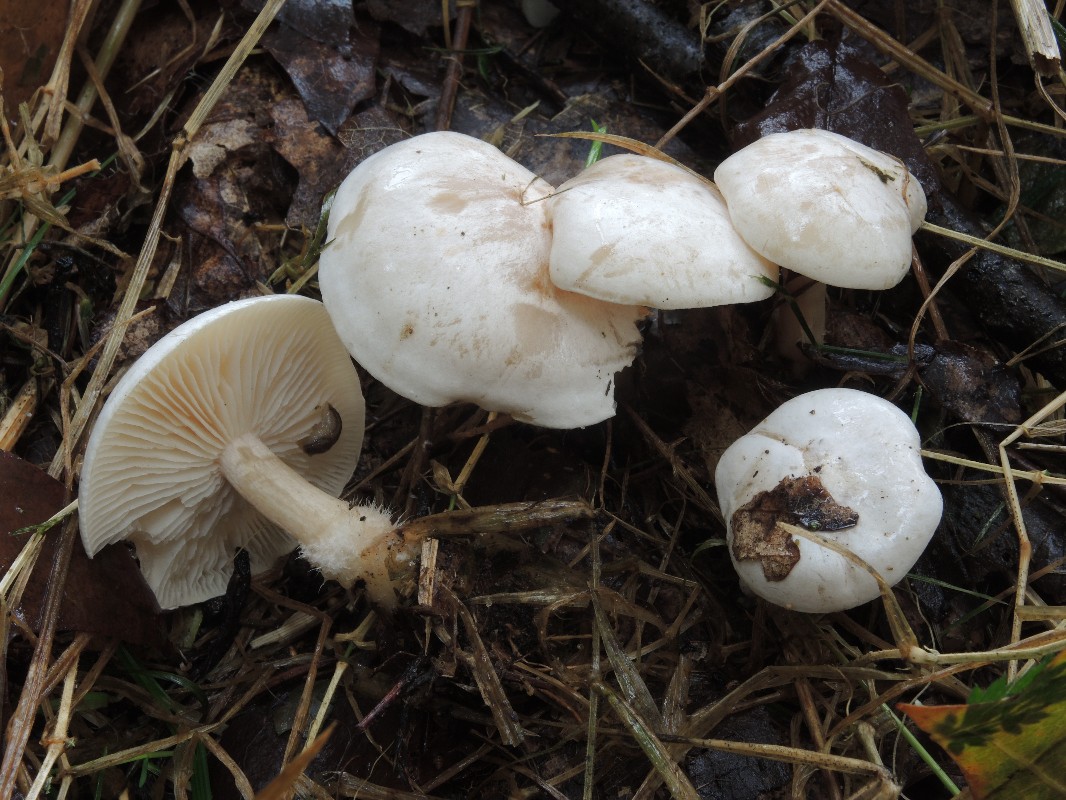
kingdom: Fungi
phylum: Basidiomycota
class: Agaricomycetes
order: Agaricales
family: Tricholomataceae
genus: Clitocybe
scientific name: Clitocybe phyllophila
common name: løv-tragthat
